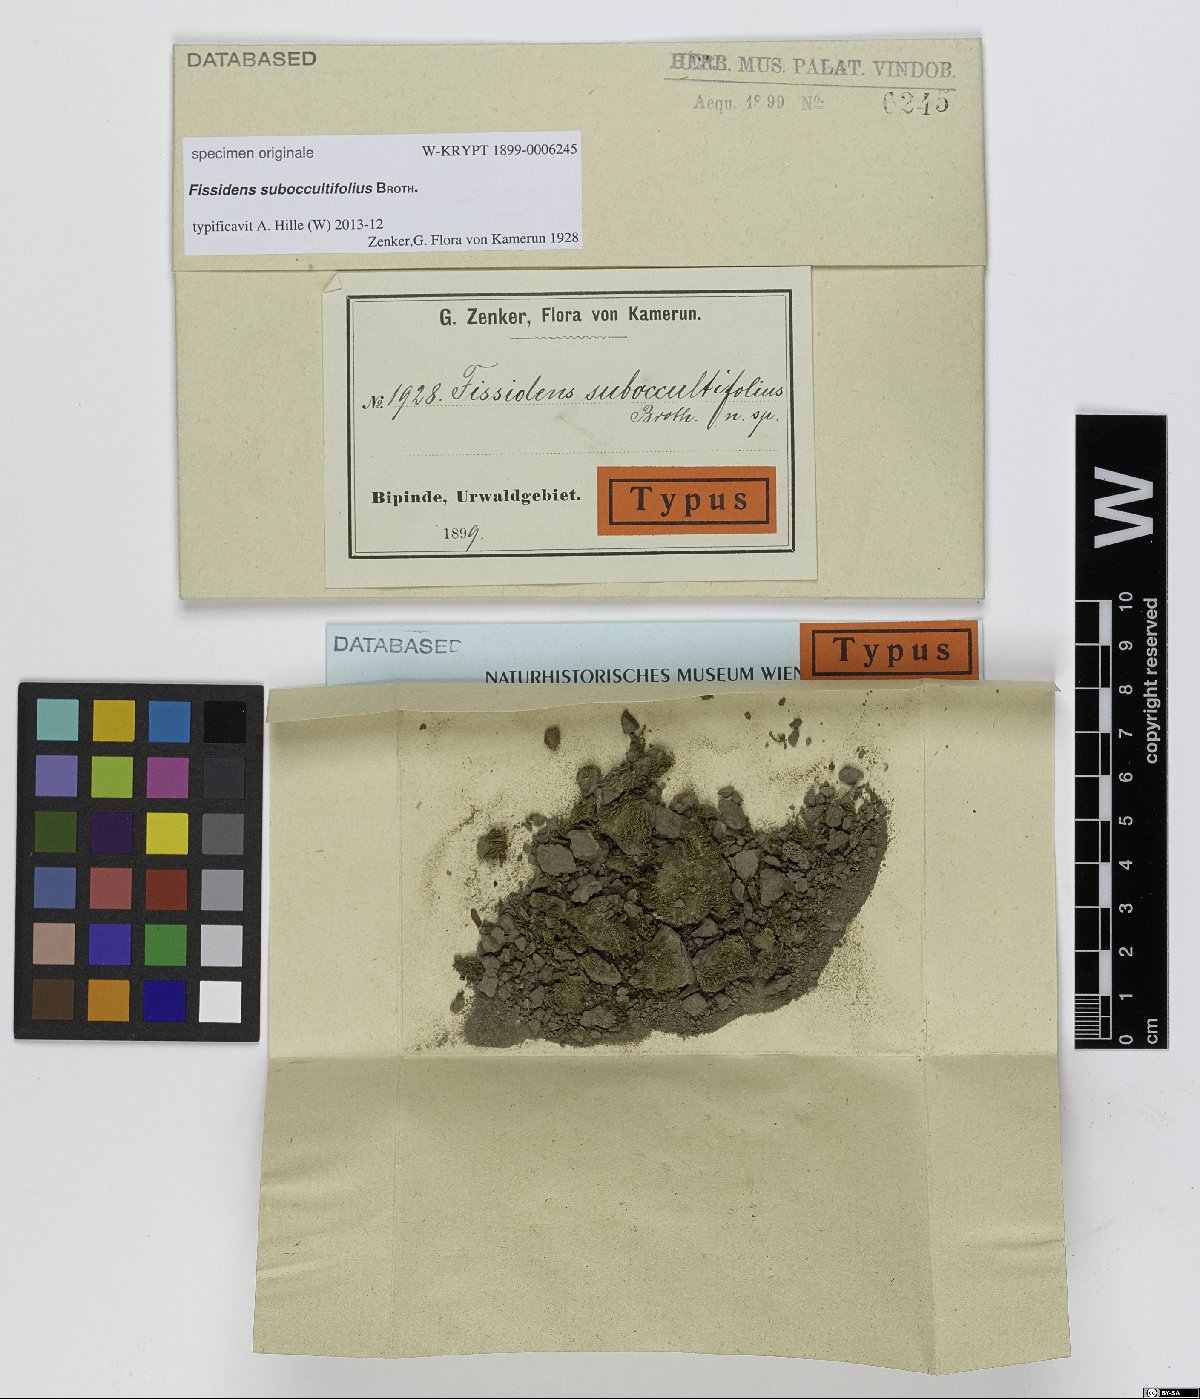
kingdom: Plantae
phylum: Bryophyta
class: Bryopsida
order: Dicranales
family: Fissidentaceae
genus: Fissidens
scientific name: Fissidens
